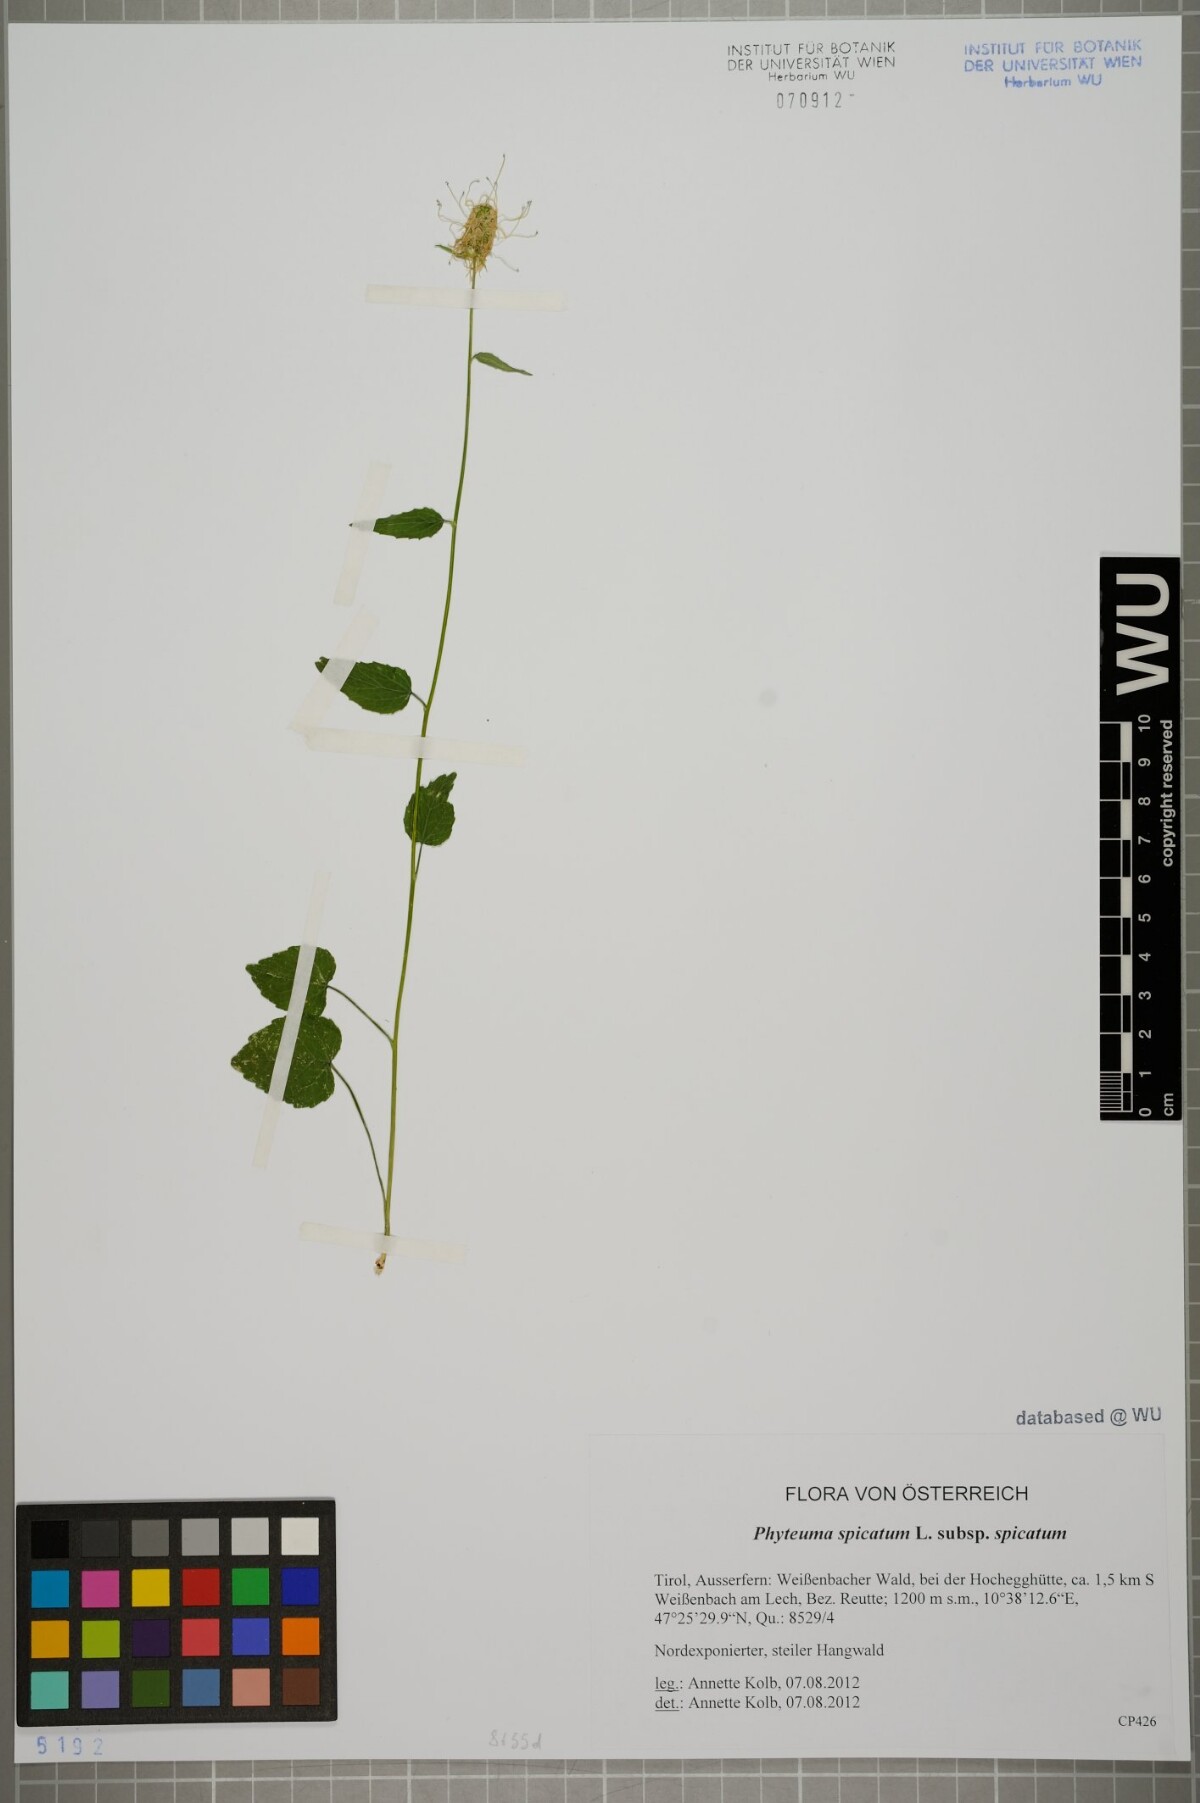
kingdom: Plantae
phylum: Tracheophyta
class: Magnoliopsida
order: Asterales
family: Campanulaceae
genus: Phyteuma
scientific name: Phyteuma spicatum
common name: Spiked rampion
